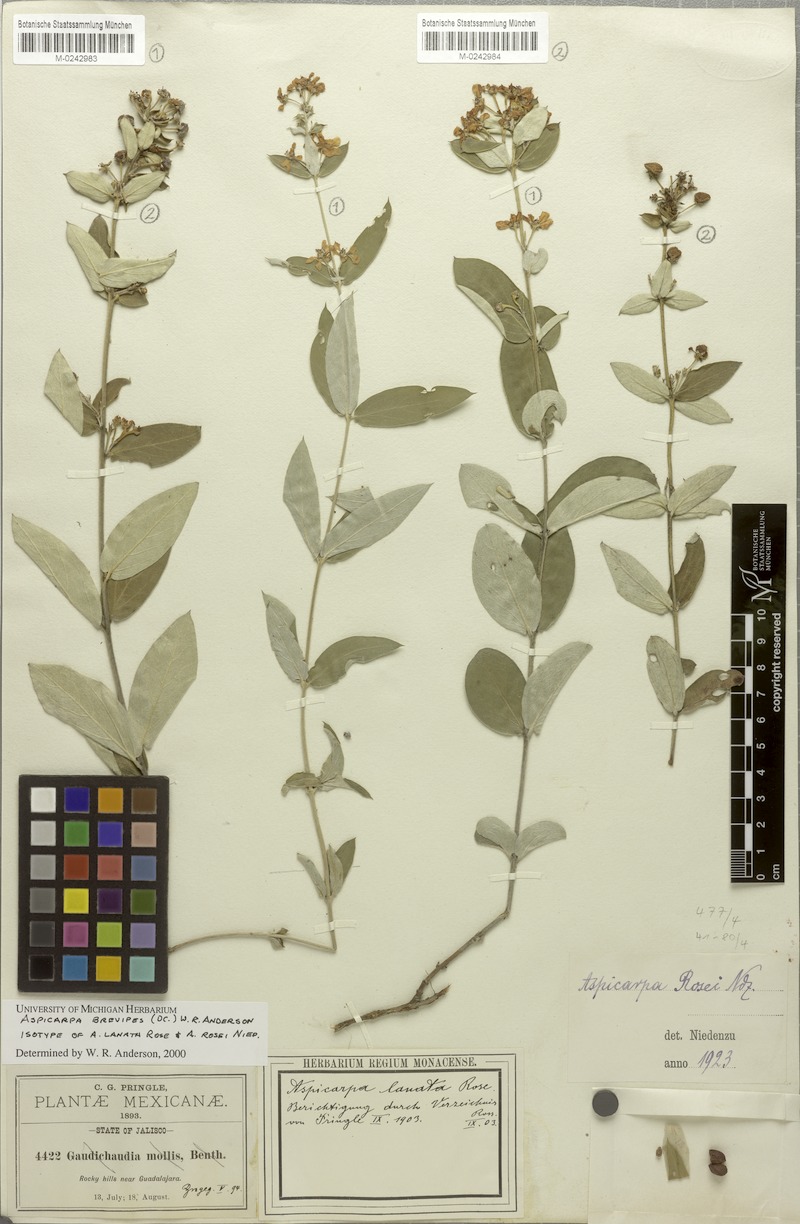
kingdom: Plantae
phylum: Tracheophyta
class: Magnoliopsida
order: Malpighiales
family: Malpighiaceae
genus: Aspicarpa
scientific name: Aspicarpa brevipes
